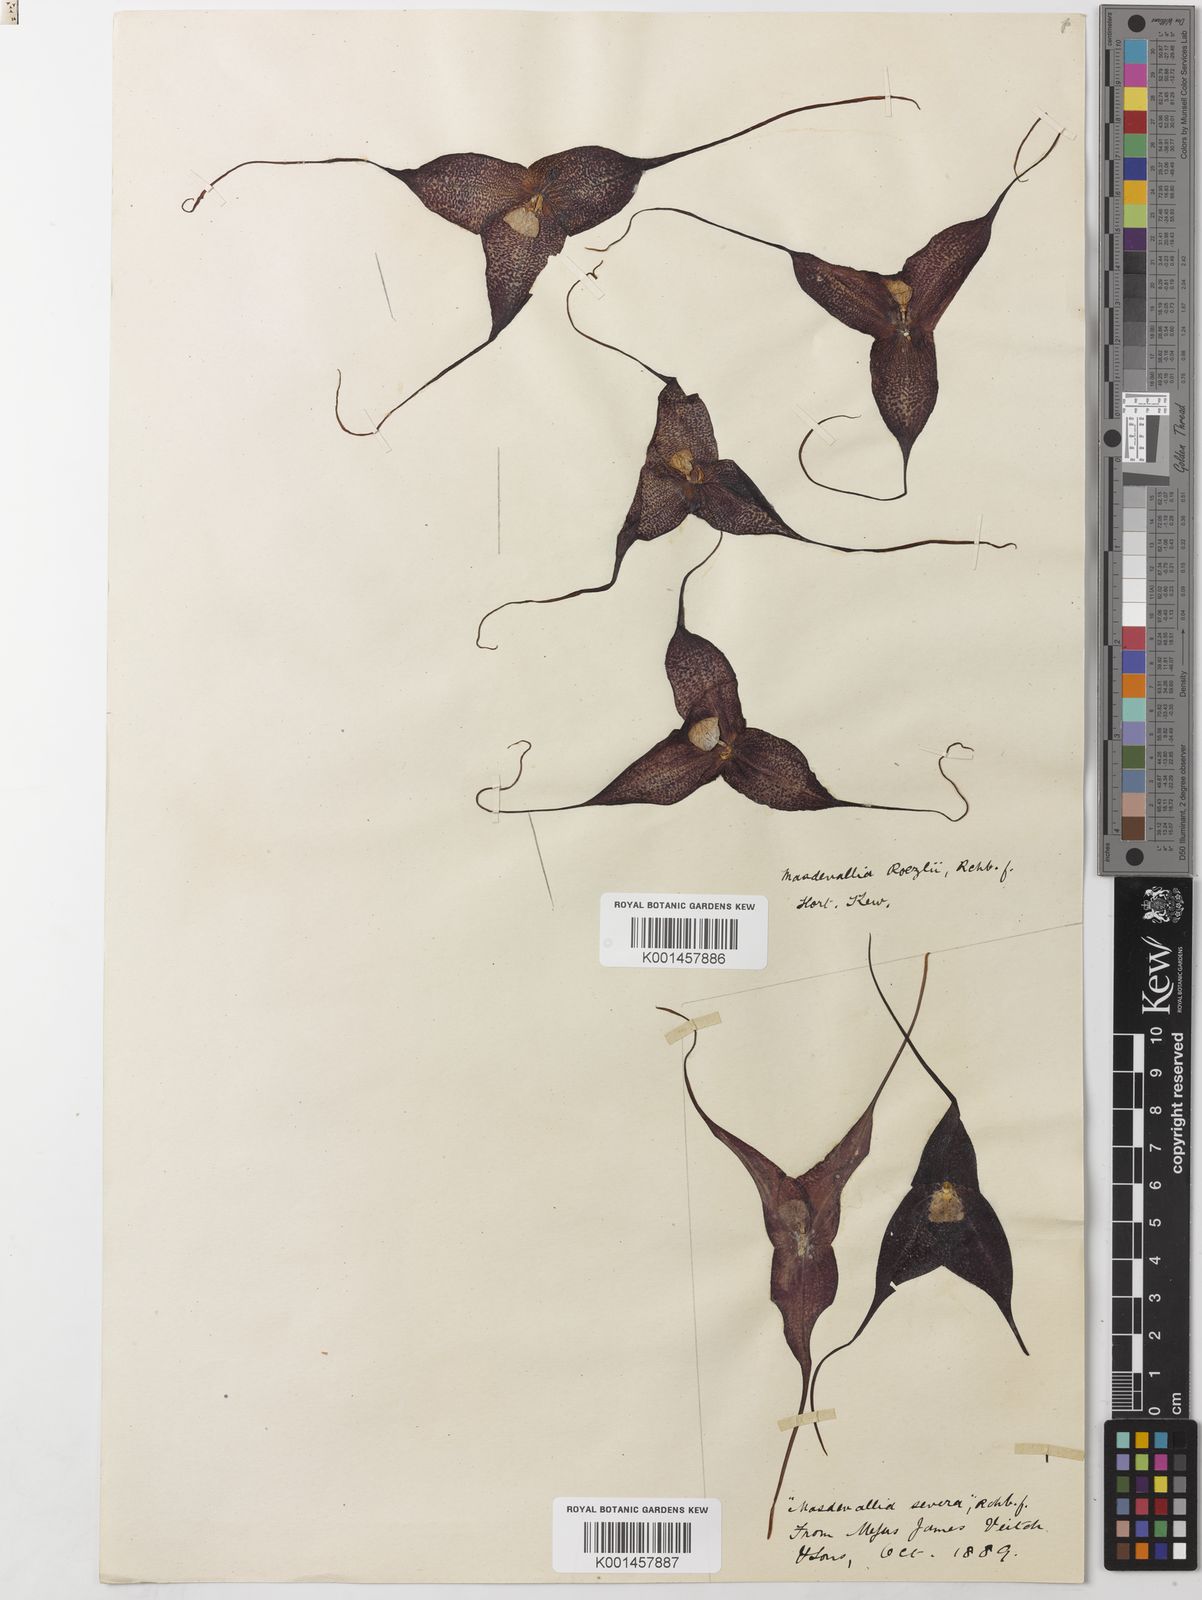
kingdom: Plantae
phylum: Tracheophyta
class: Liliopsida
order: Asparagales
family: Orchidaceae
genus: Dracula
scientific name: Dracula severa
